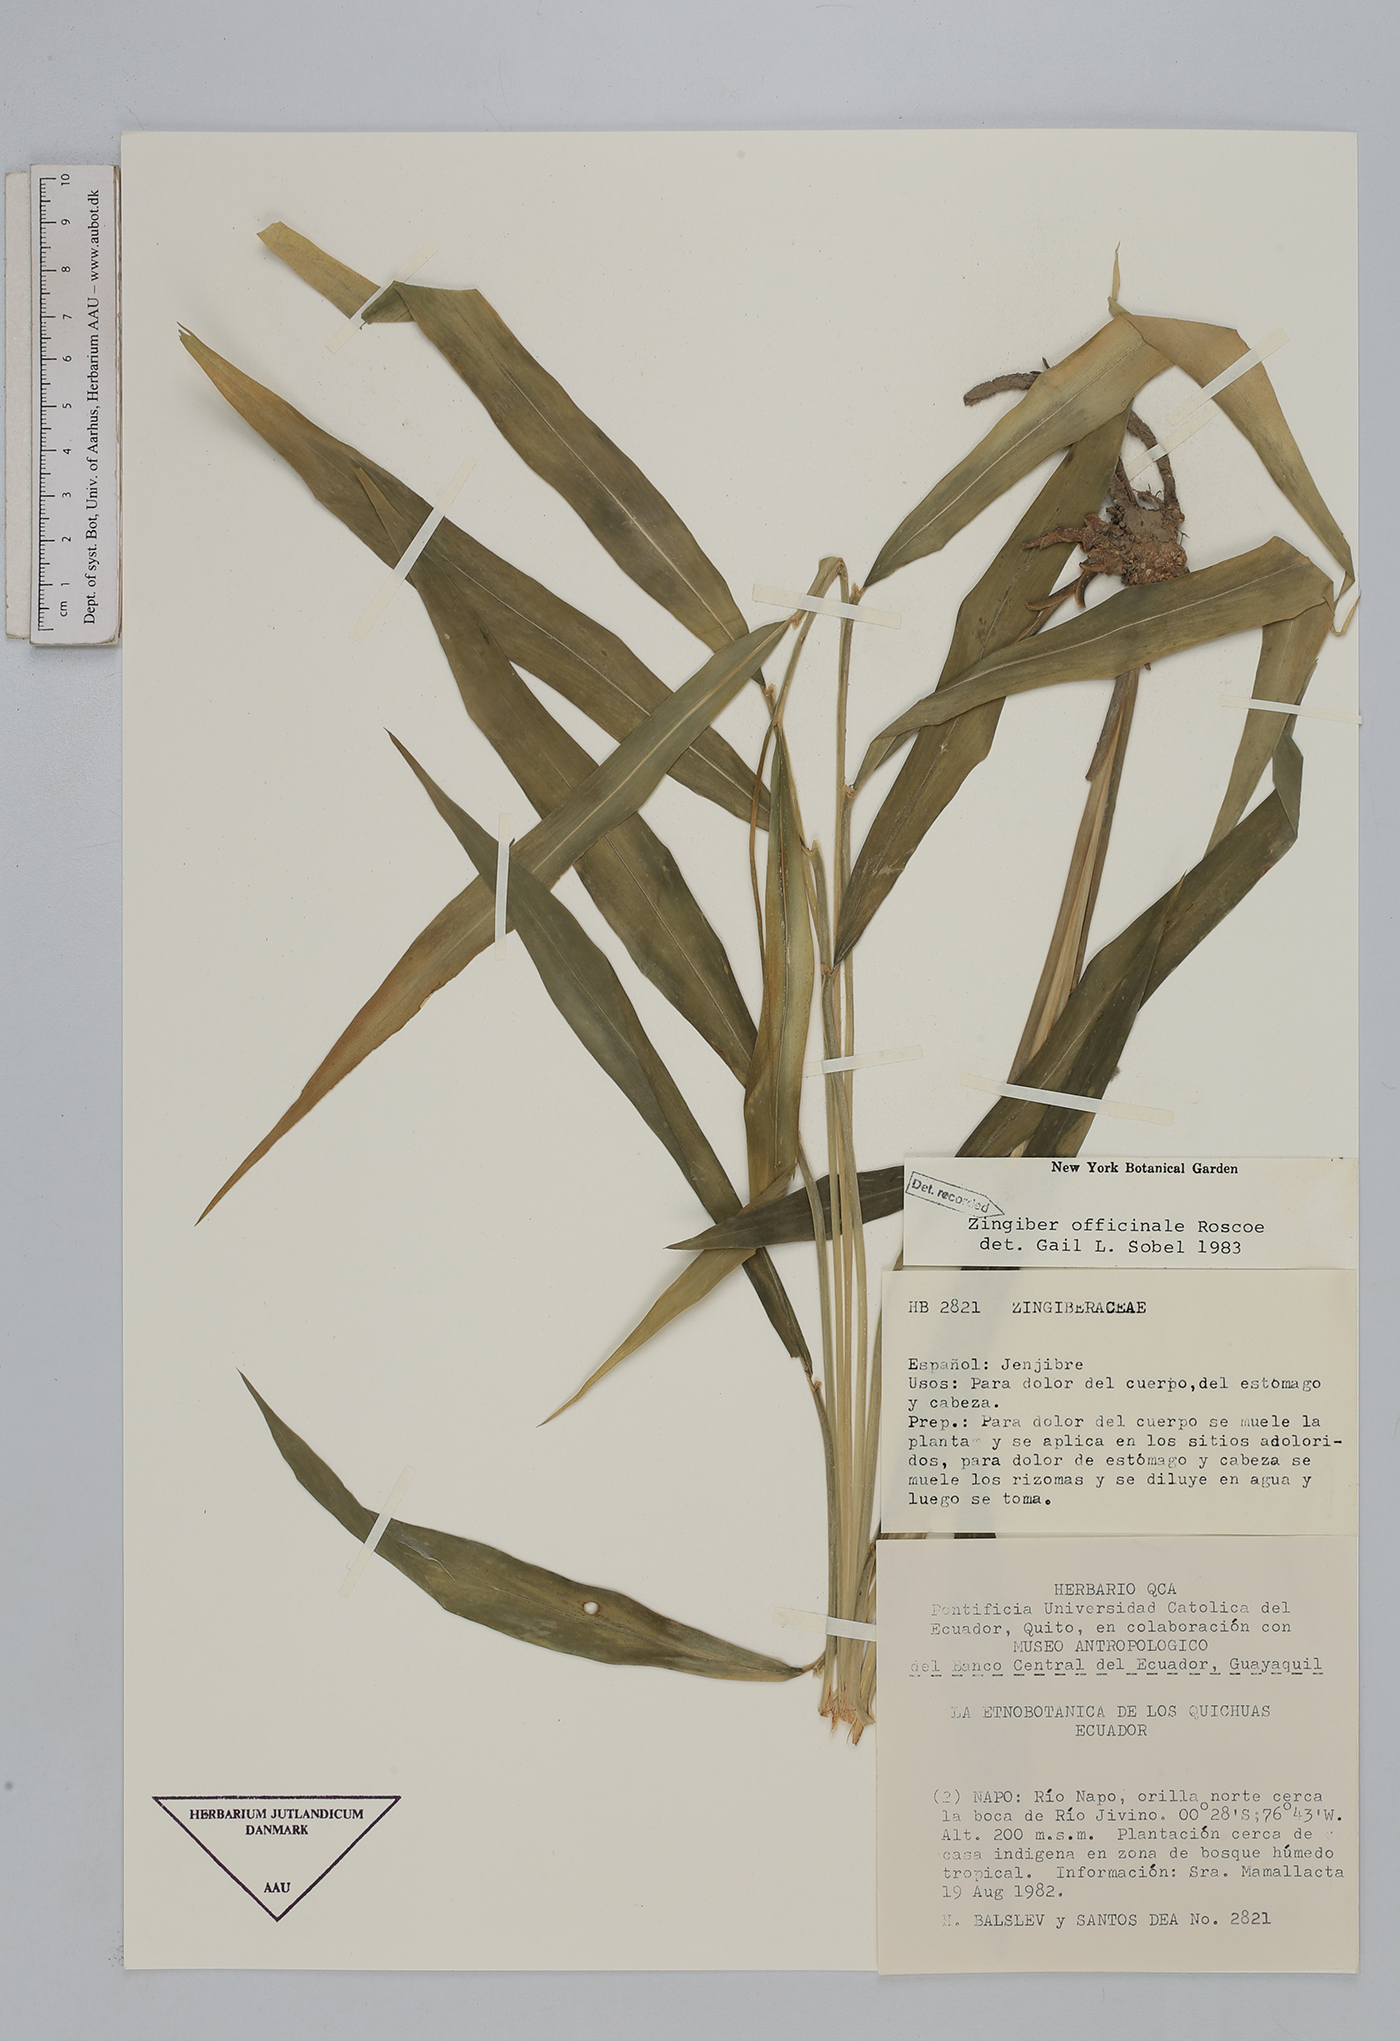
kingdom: Plantae
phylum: Tracheophyta
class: Liliopsida
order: Zingiberales
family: Zingiberaceae
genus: Zingiber
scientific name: Zingiber officinale
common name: Ginger
